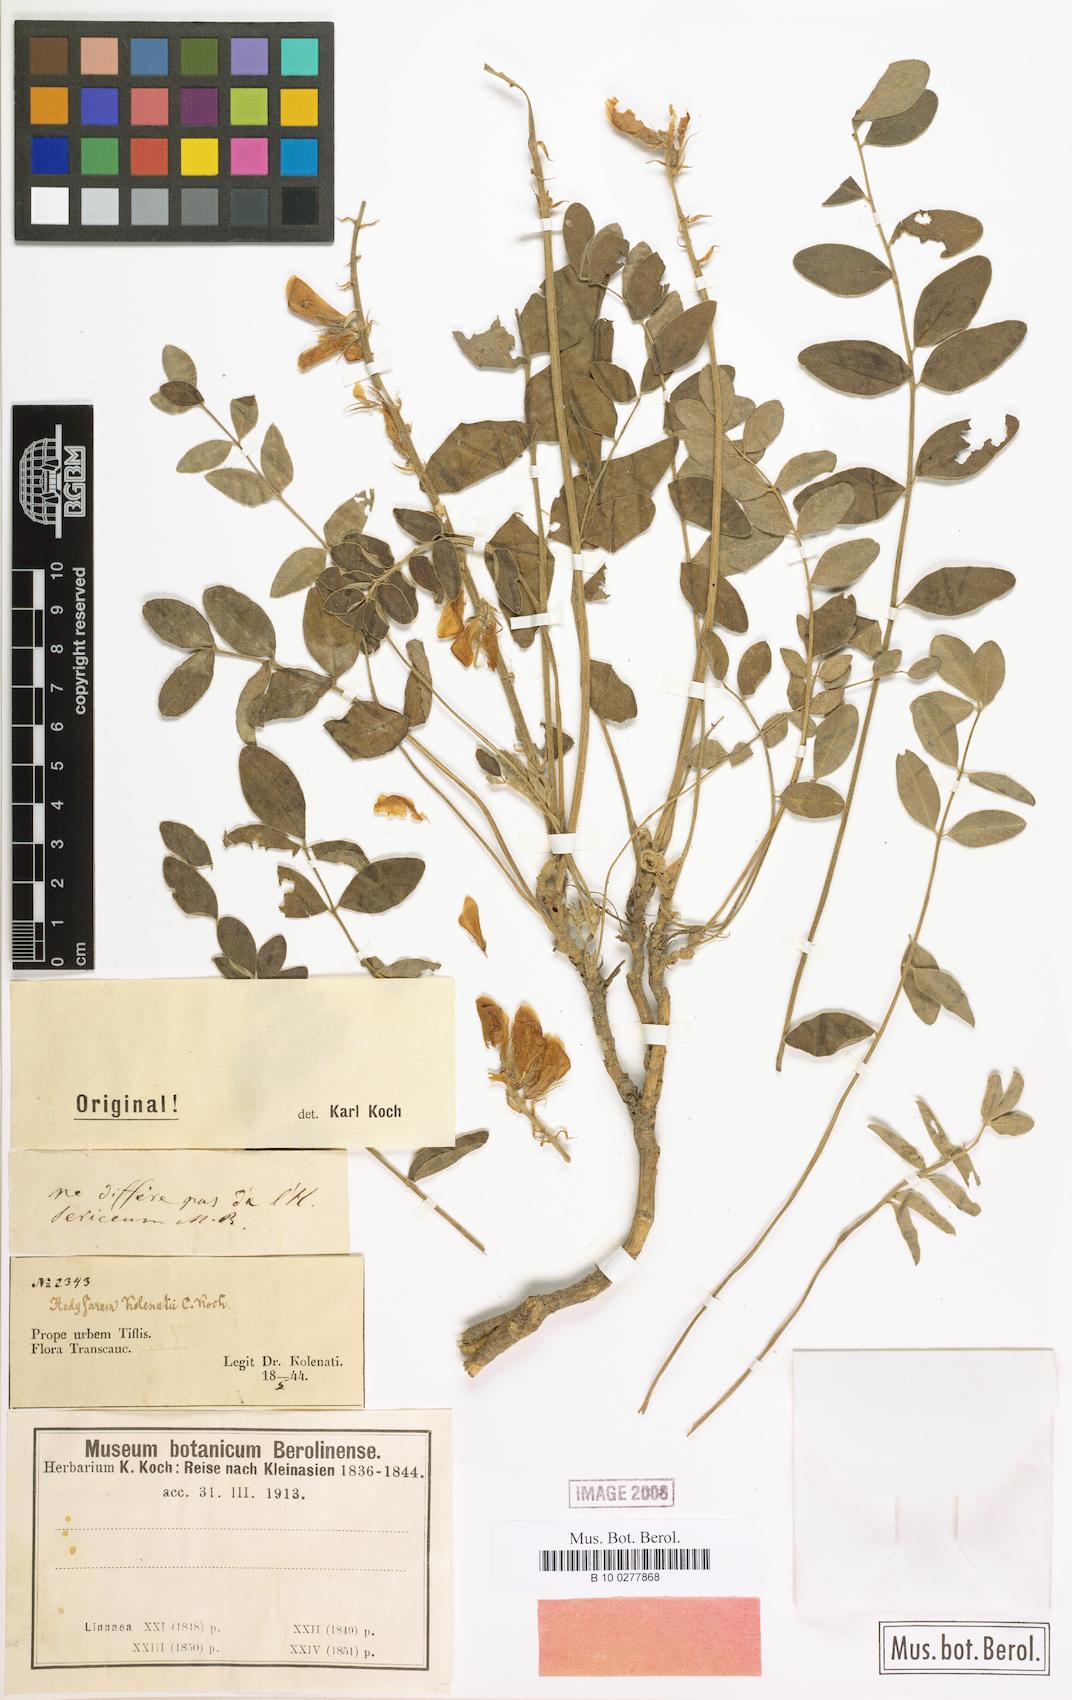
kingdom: Plantae
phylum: Tracheophyta
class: Magnoliopsida
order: Fabales
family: Fabaceae
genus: Hedysarum
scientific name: Hedysarum kolenatii
